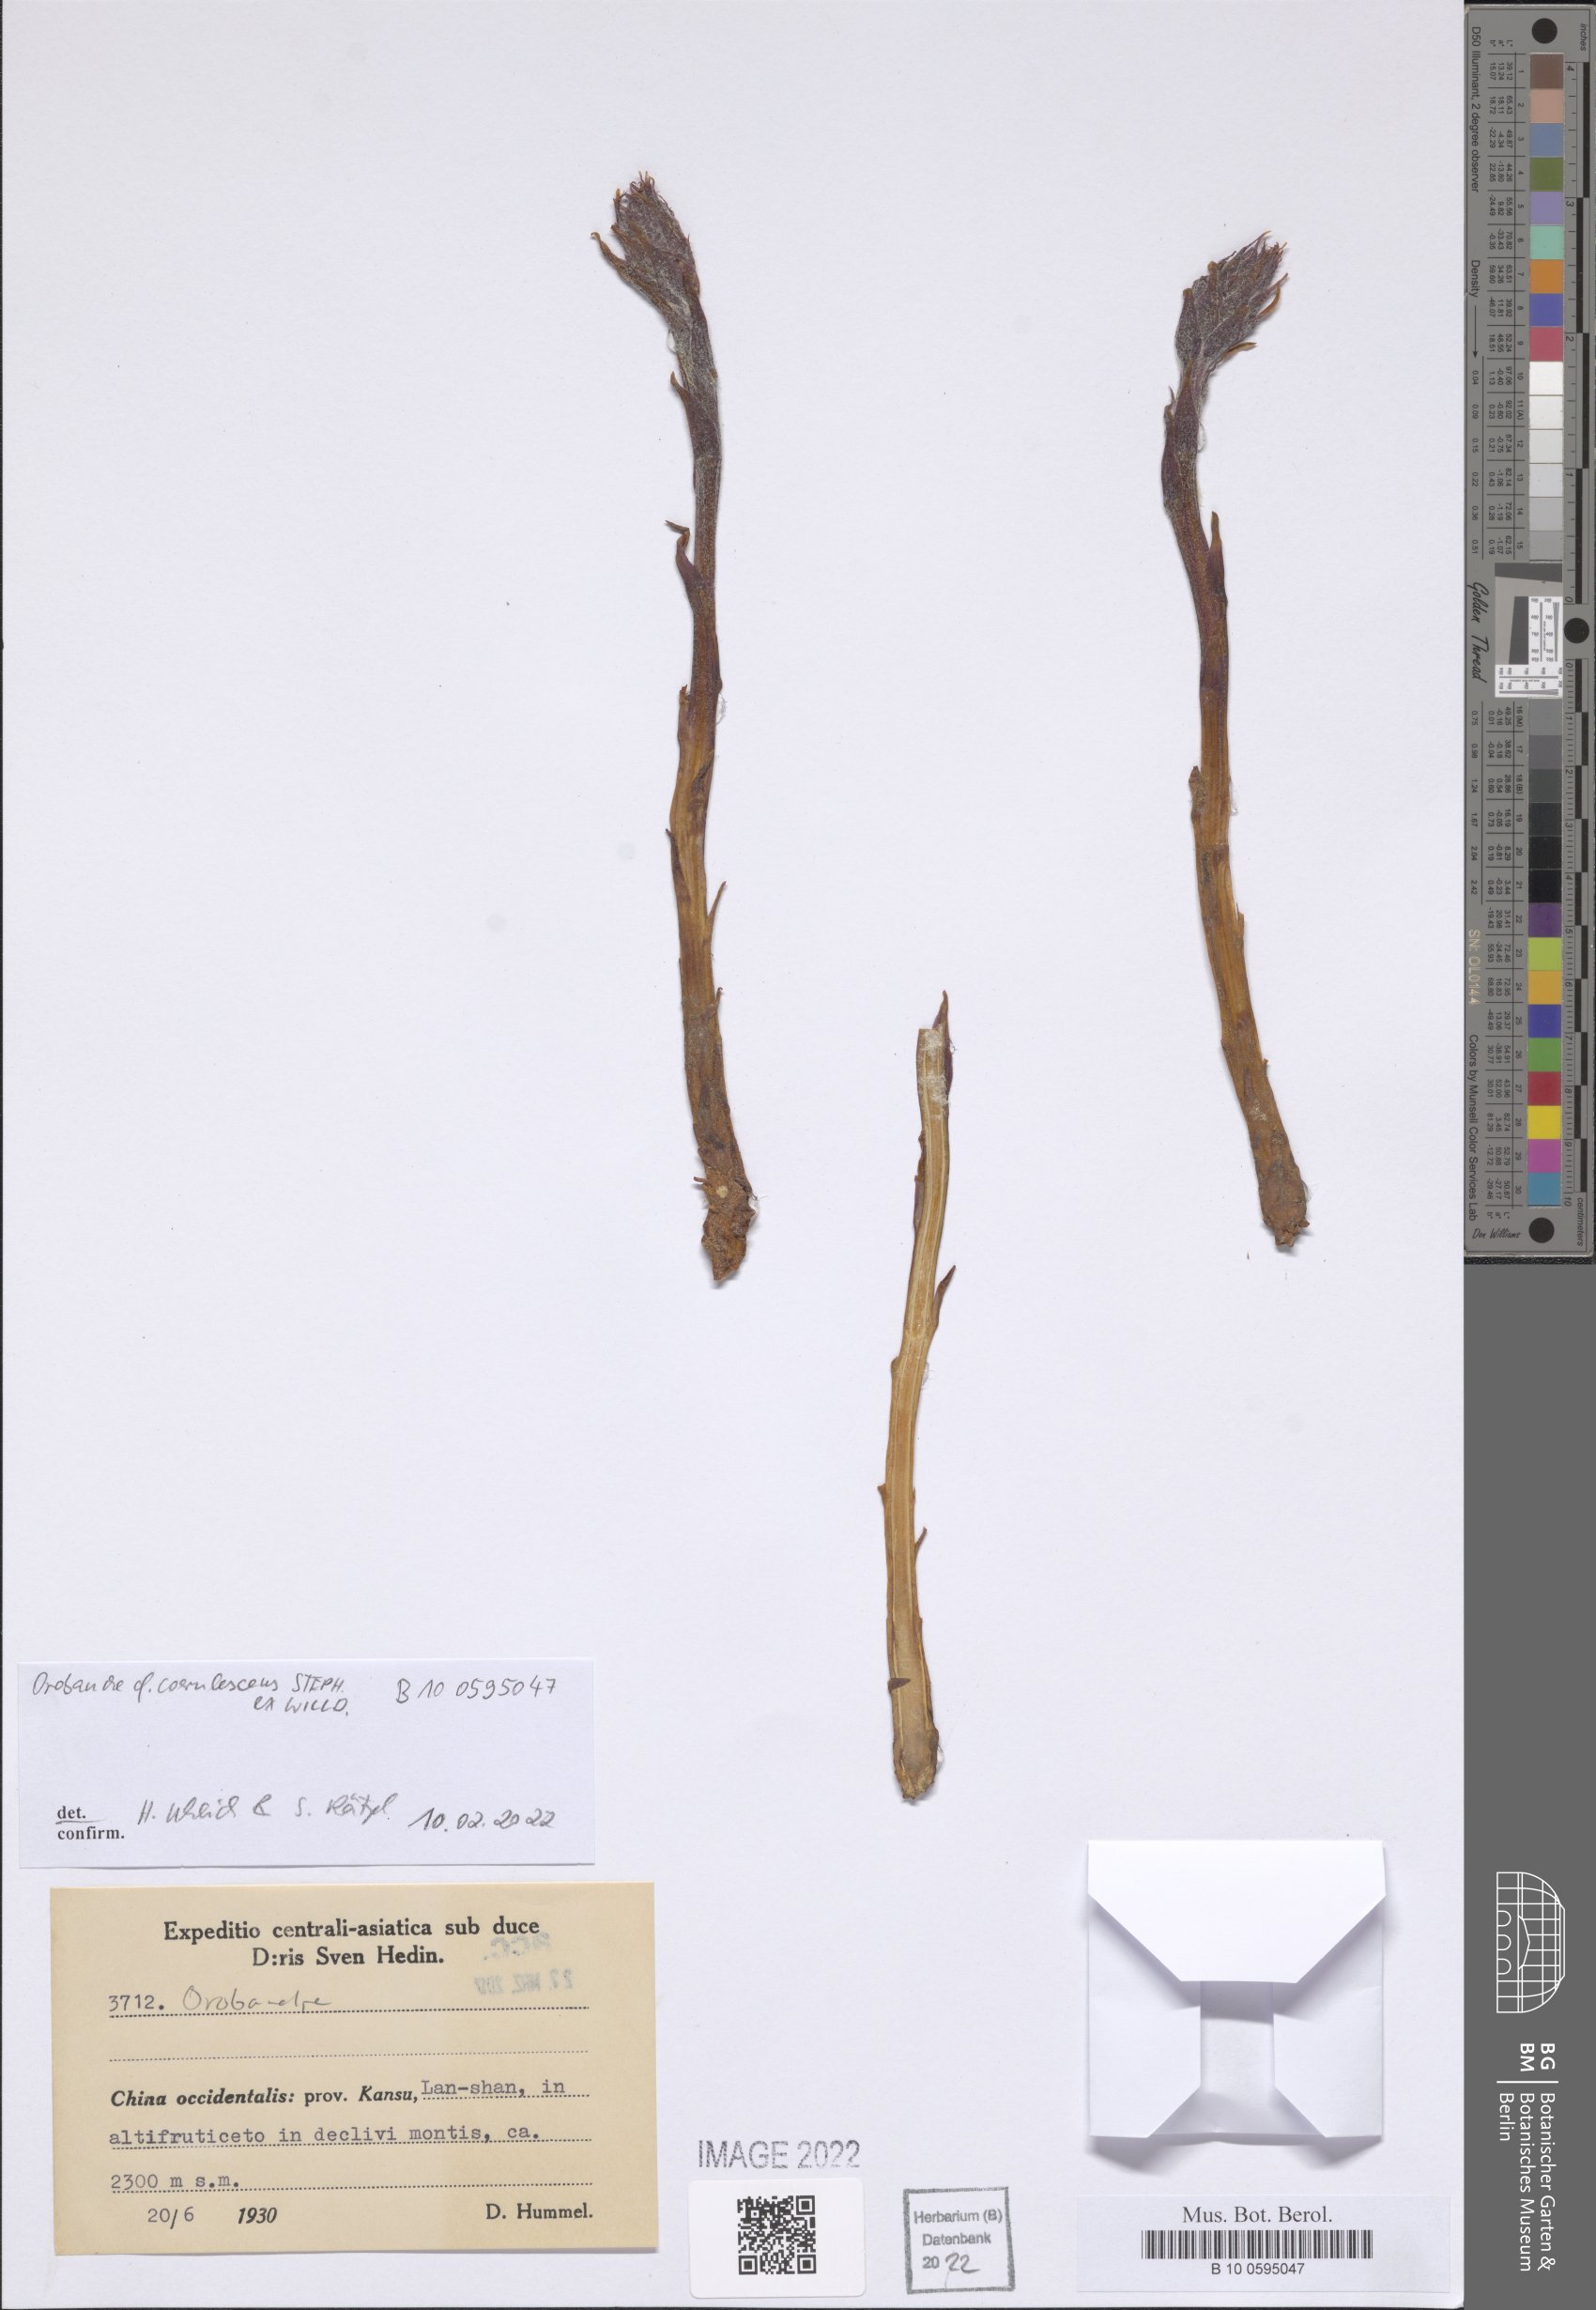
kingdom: Plantae
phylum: Tracheophyta
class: Magnoliopsida
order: Lamiales
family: Orobanchaceae
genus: Orobanche
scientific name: Orobanche coerulescens
